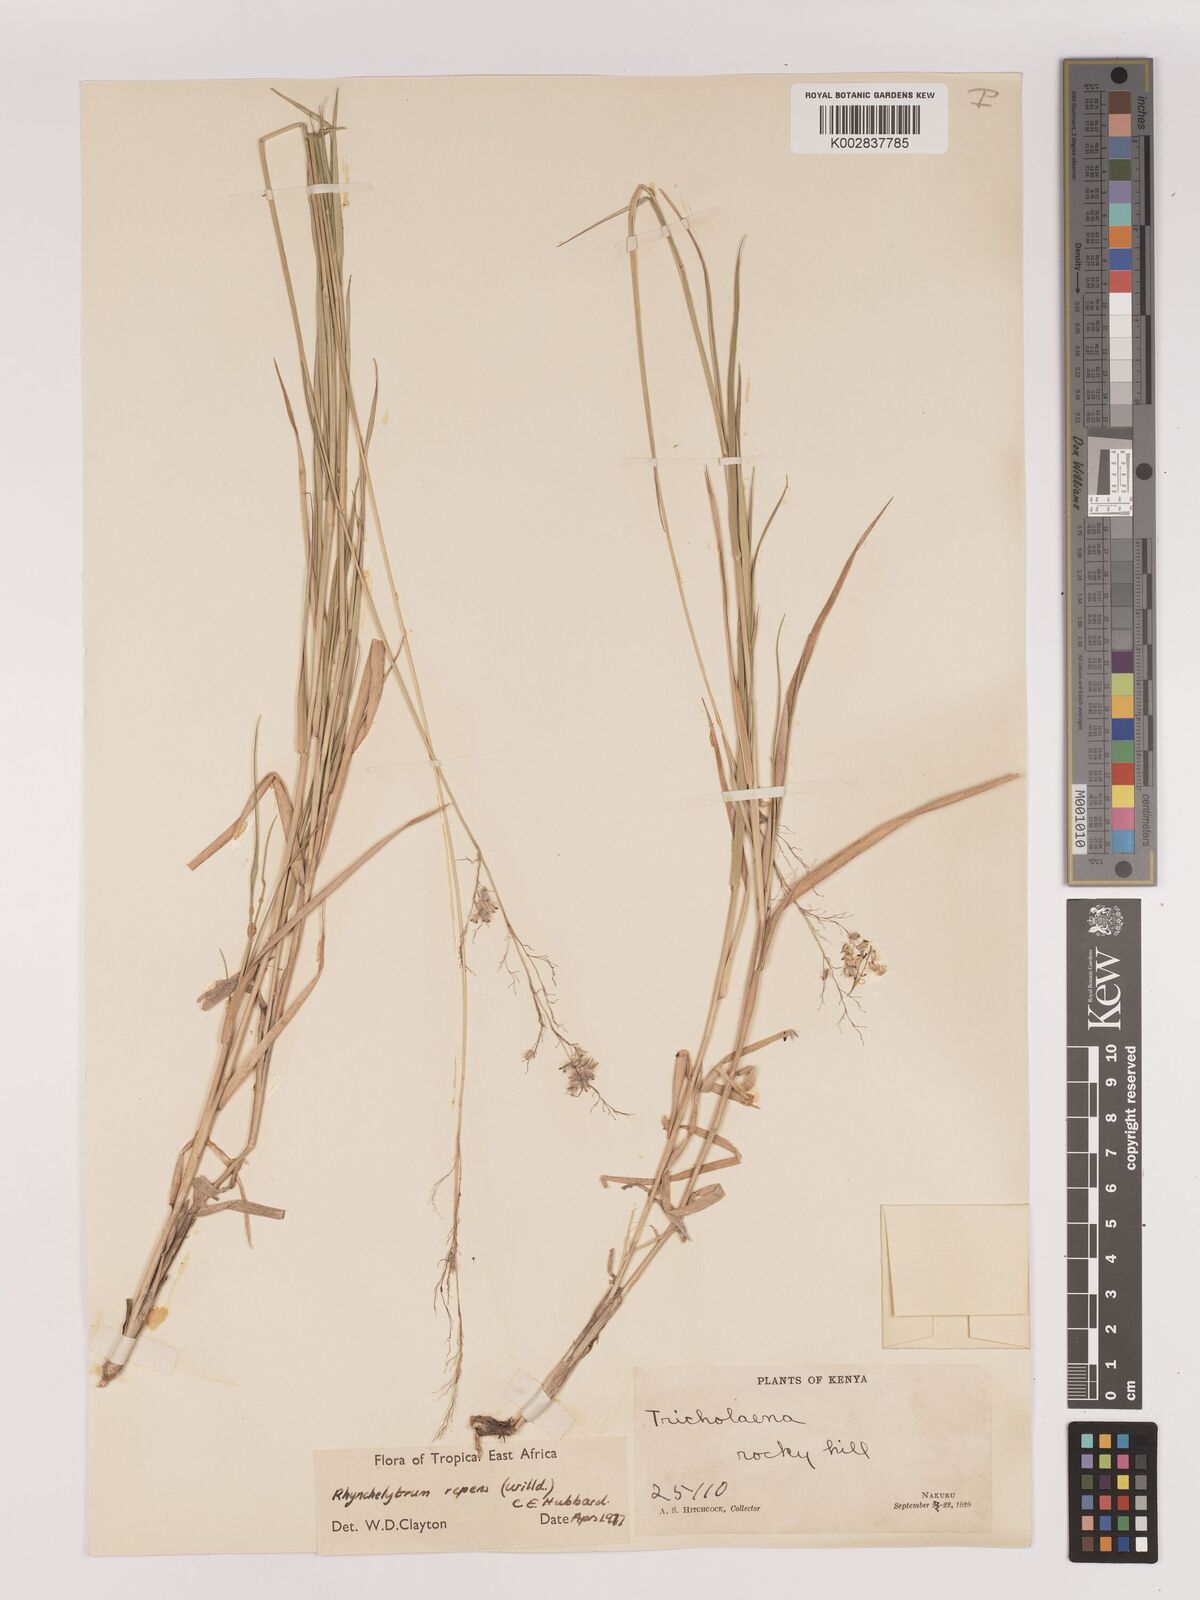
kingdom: Plantae
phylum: Tracheophyta
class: Liliopsida
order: Poales
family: Poaceae
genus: Melinis
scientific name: Melinis repens
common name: Rose natal grass
